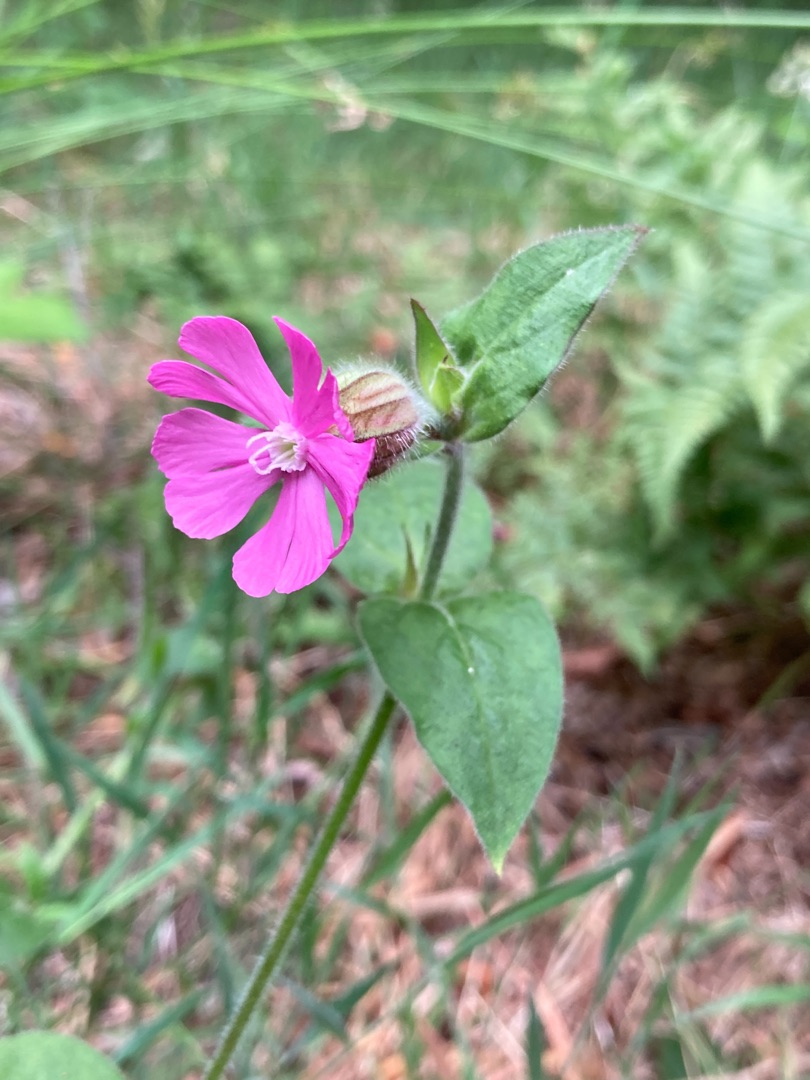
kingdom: Plantae
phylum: Tracheophyta
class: Magnoliopsida
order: Caryophyllales
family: Caryophyllaceae
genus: Silene
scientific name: Silene dioica
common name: Dagpragtstjerne
